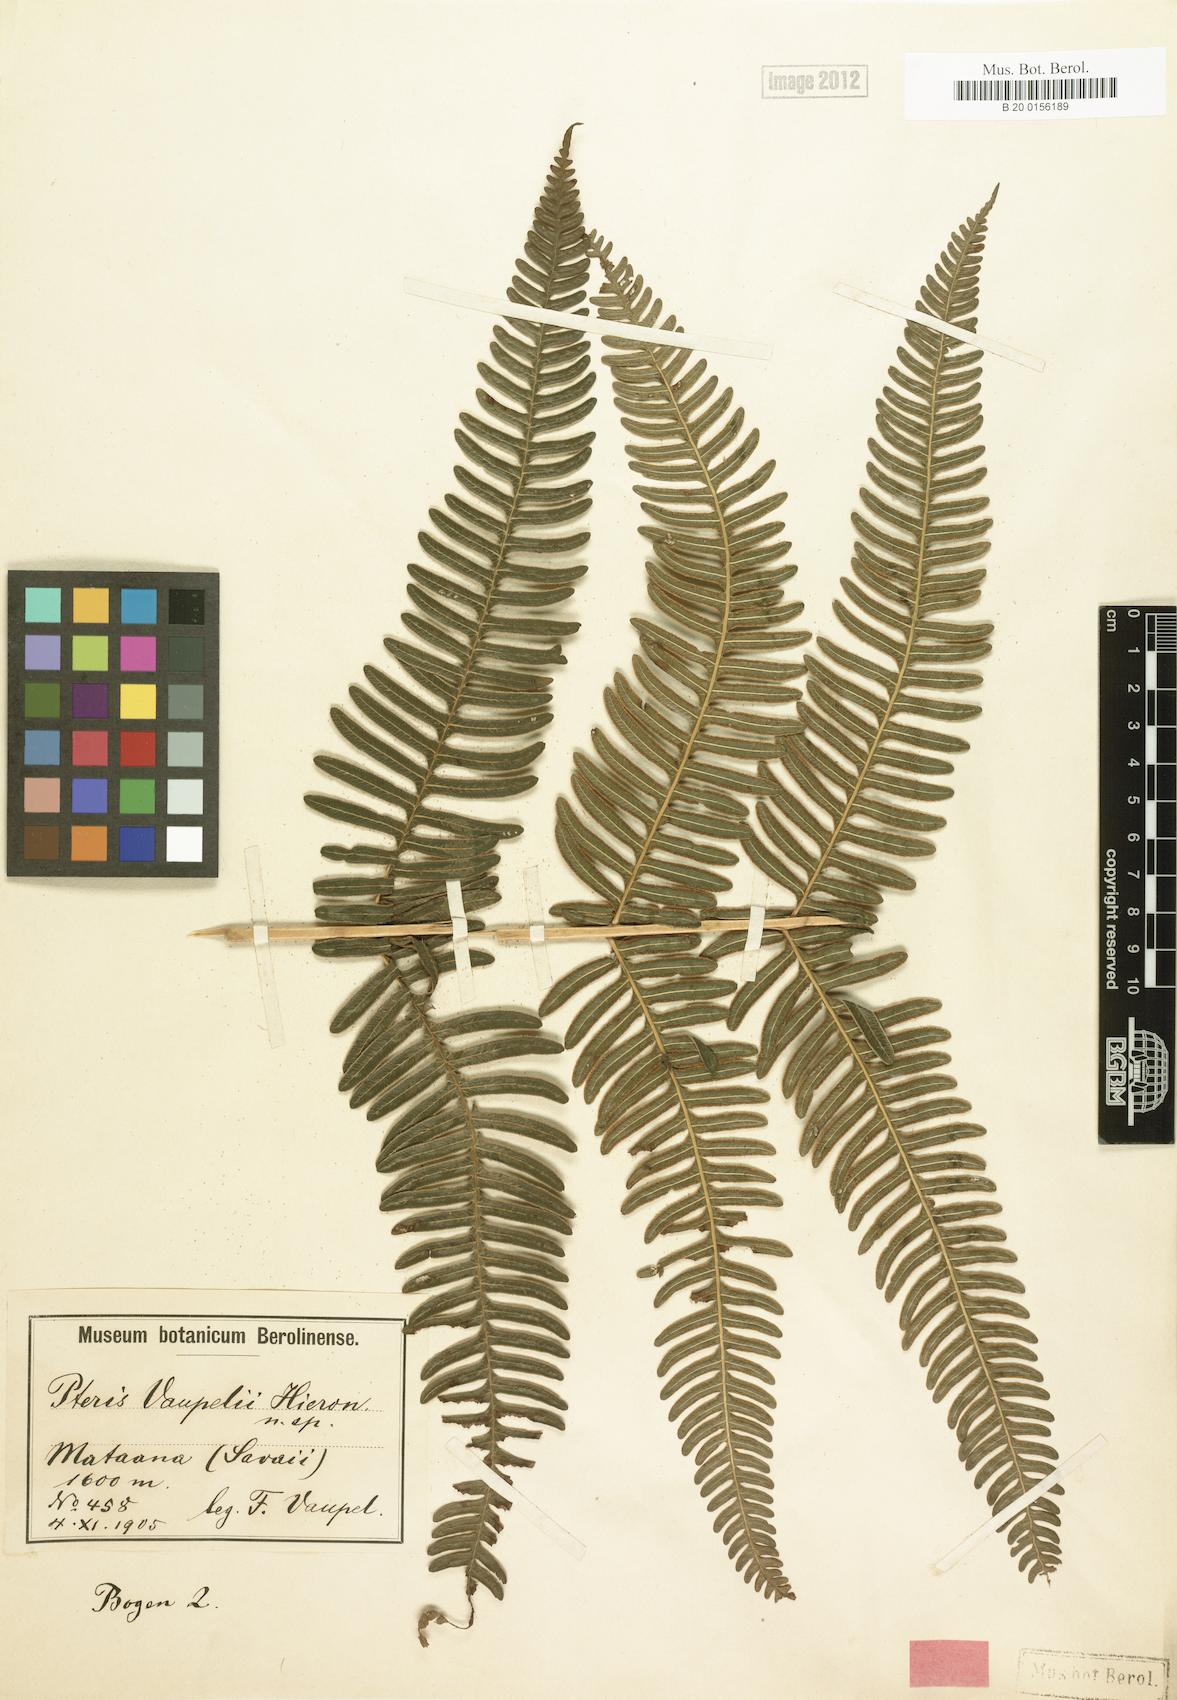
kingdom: Plantae
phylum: Tracheophyta
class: Polypodiopsida
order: Polypodiales
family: Pteridaceae
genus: Pteris
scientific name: Pteris vaupelii
